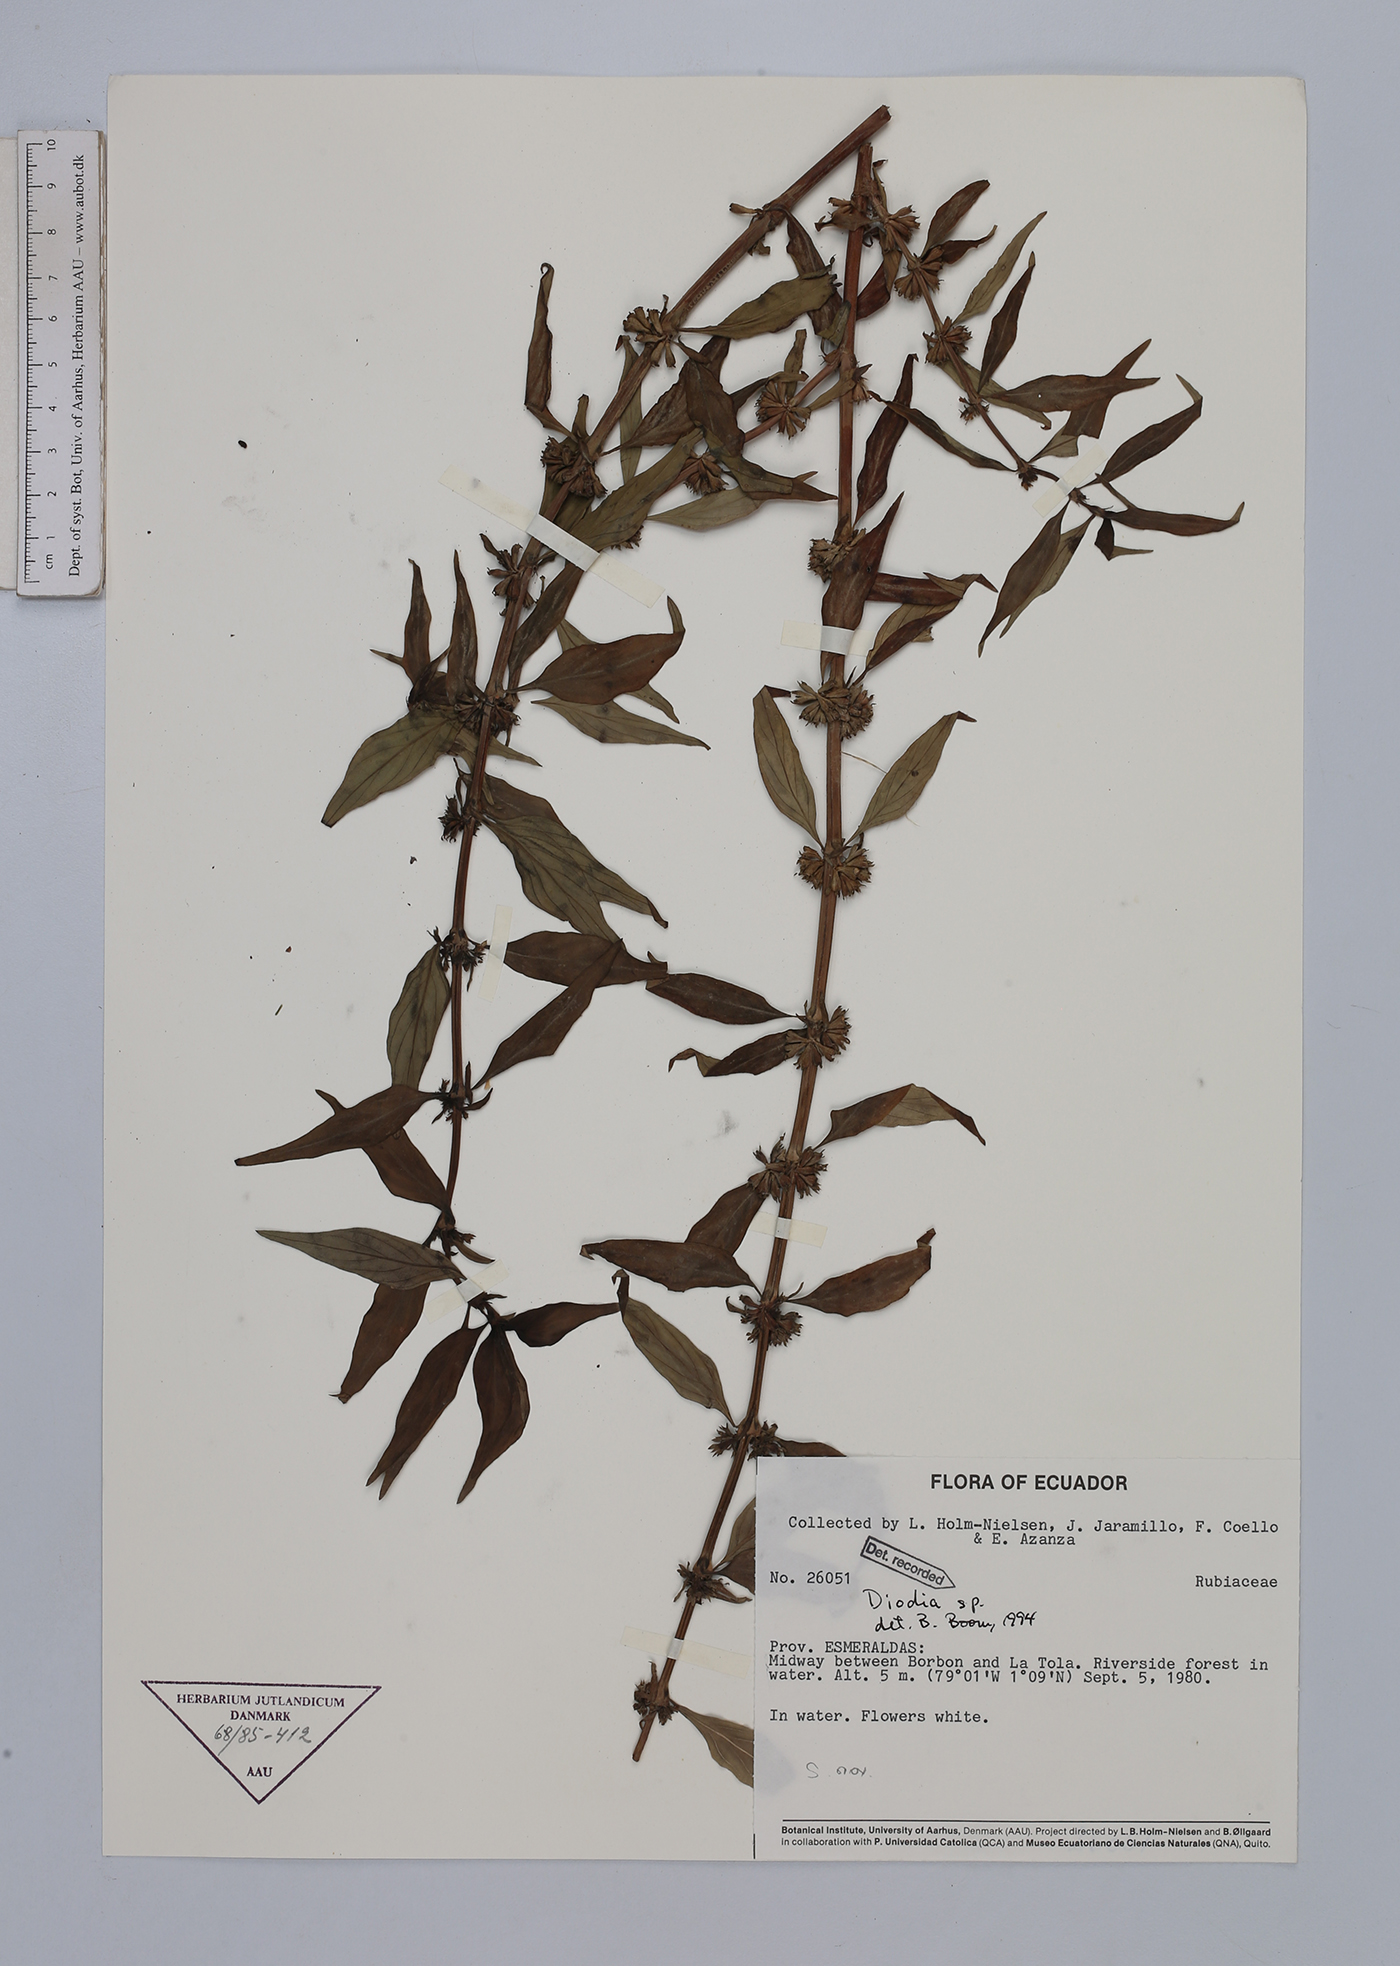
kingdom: Plantae
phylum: Tracheophyta
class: Magnoliopsida
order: Gentianales
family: Rubiaceae
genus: Diodia
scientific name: Diodia
